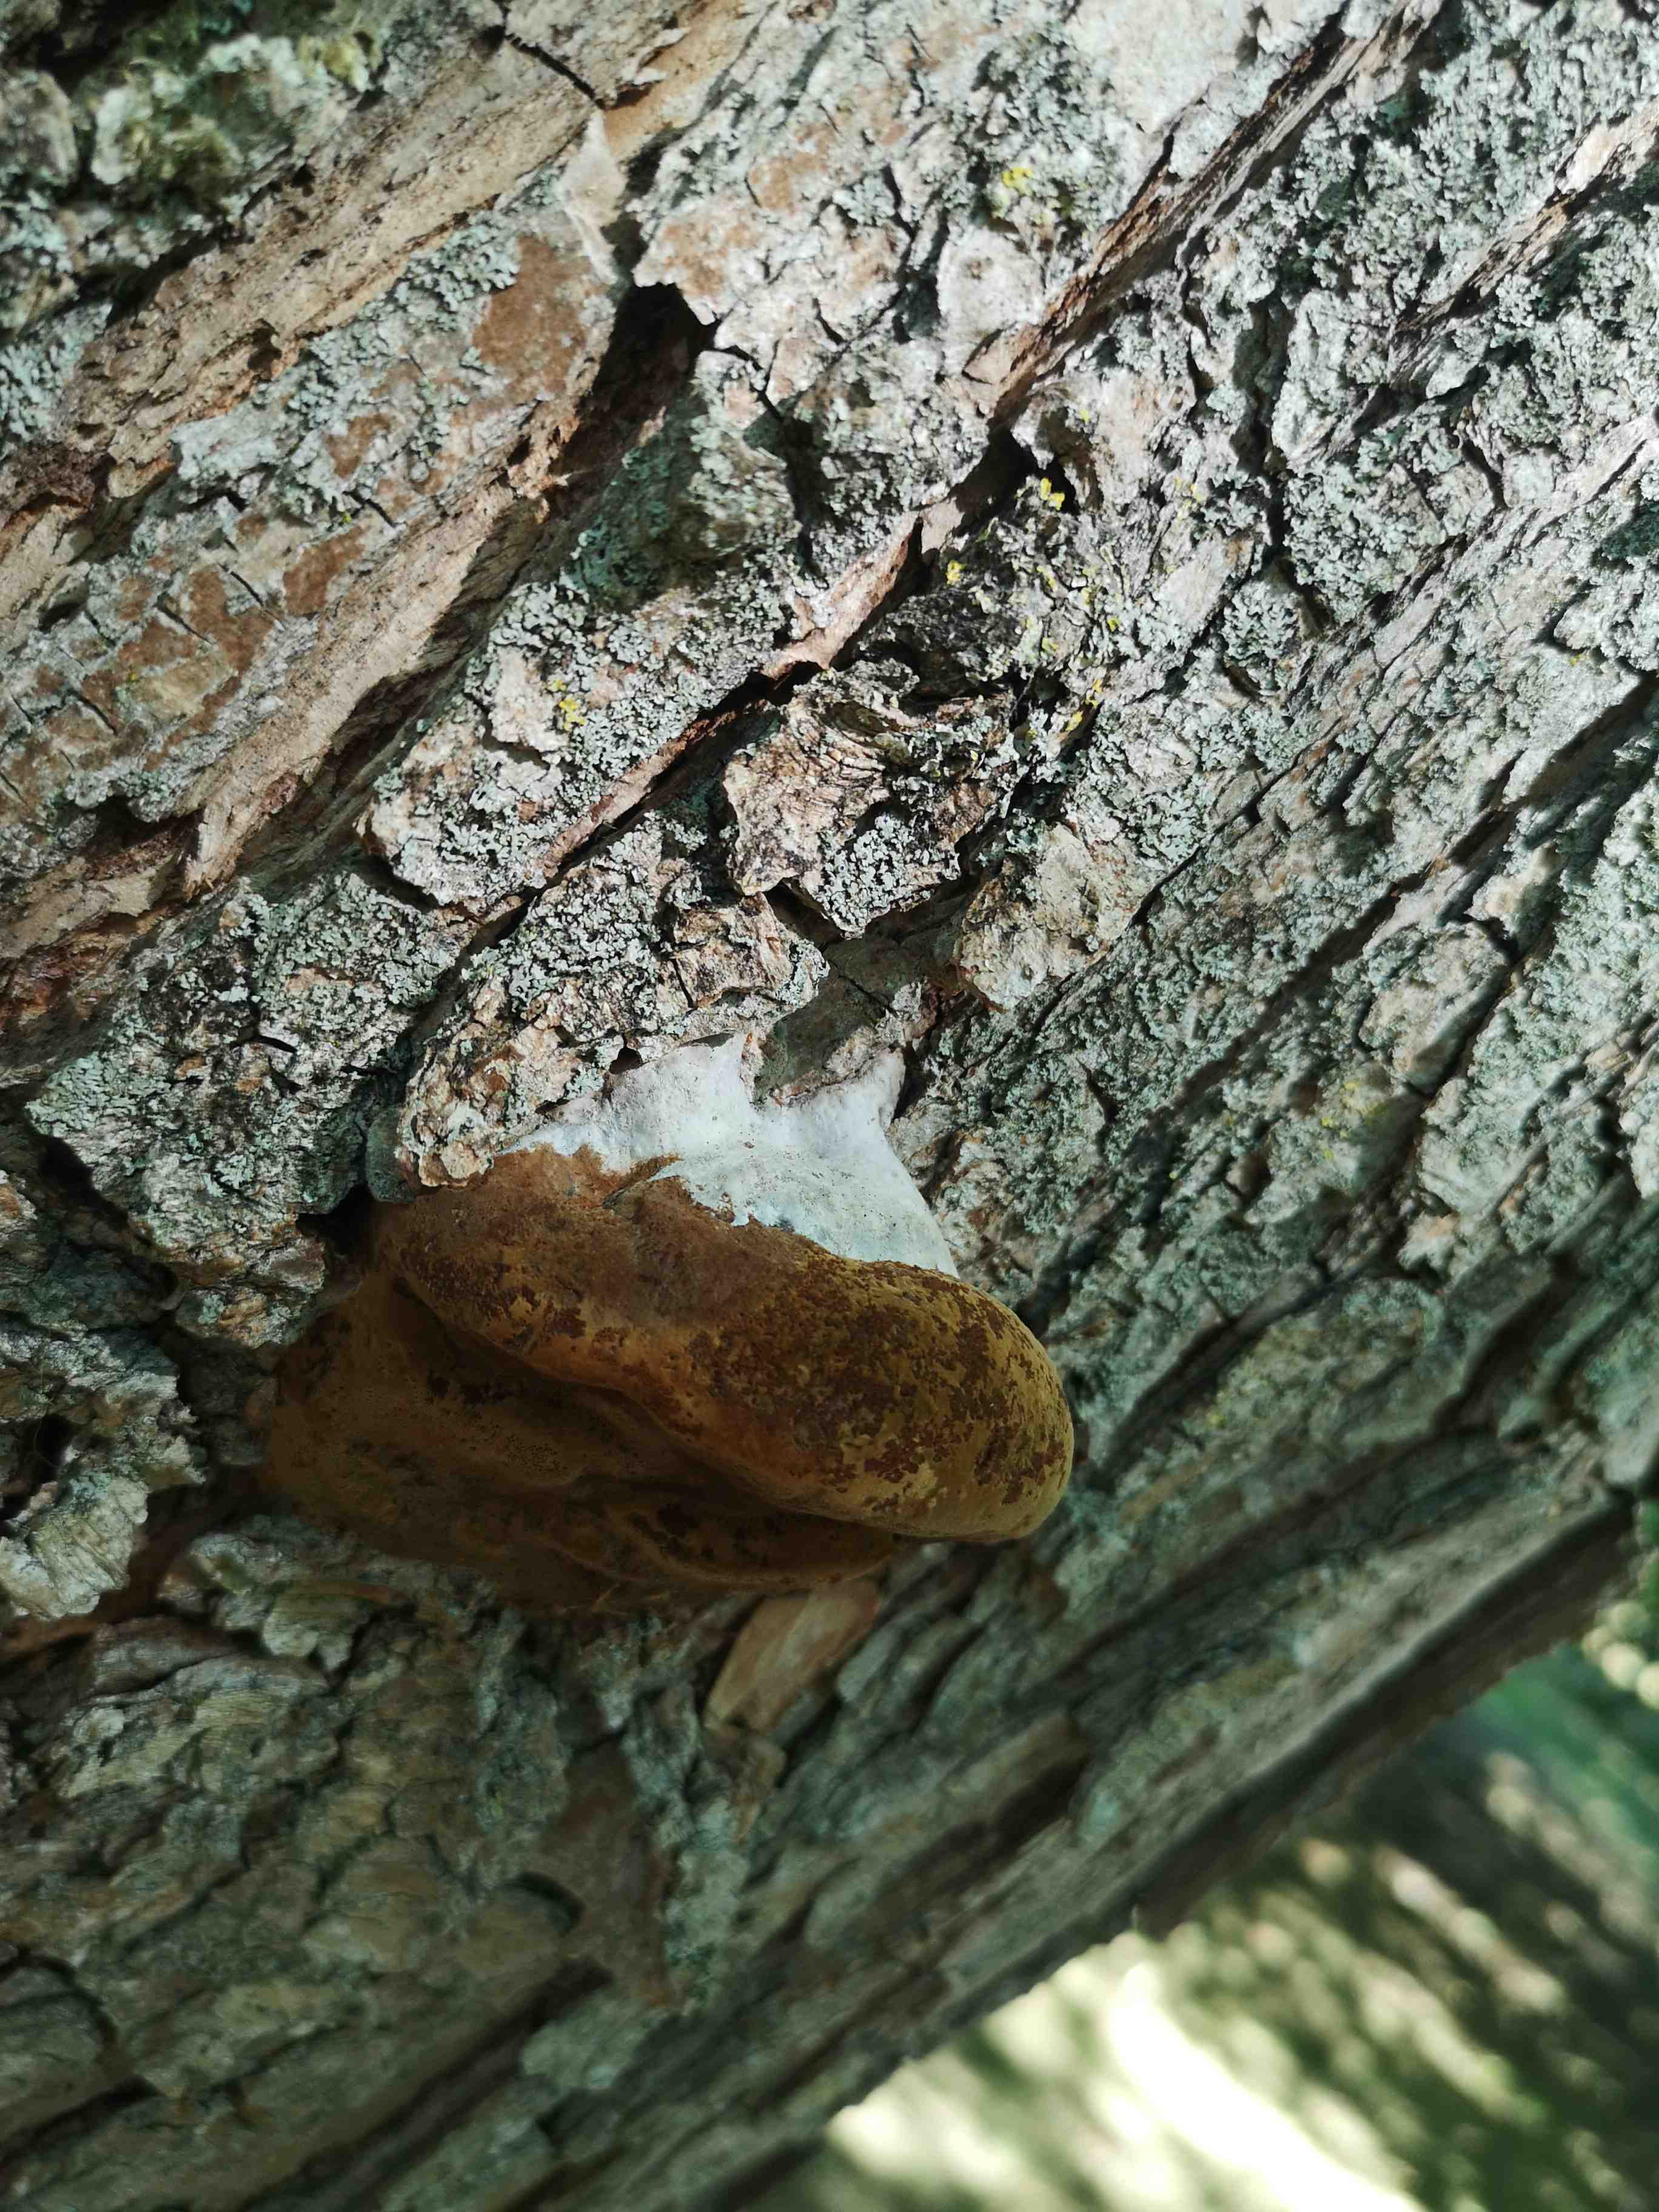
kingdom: Fungi
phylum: Basidiomycota
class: Agaricomycetes
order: Hymenochaetales
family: Hymenochaetaceae
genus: Phellinus
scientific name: Phellinus igniarius
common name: almindelig ildporesvamp
